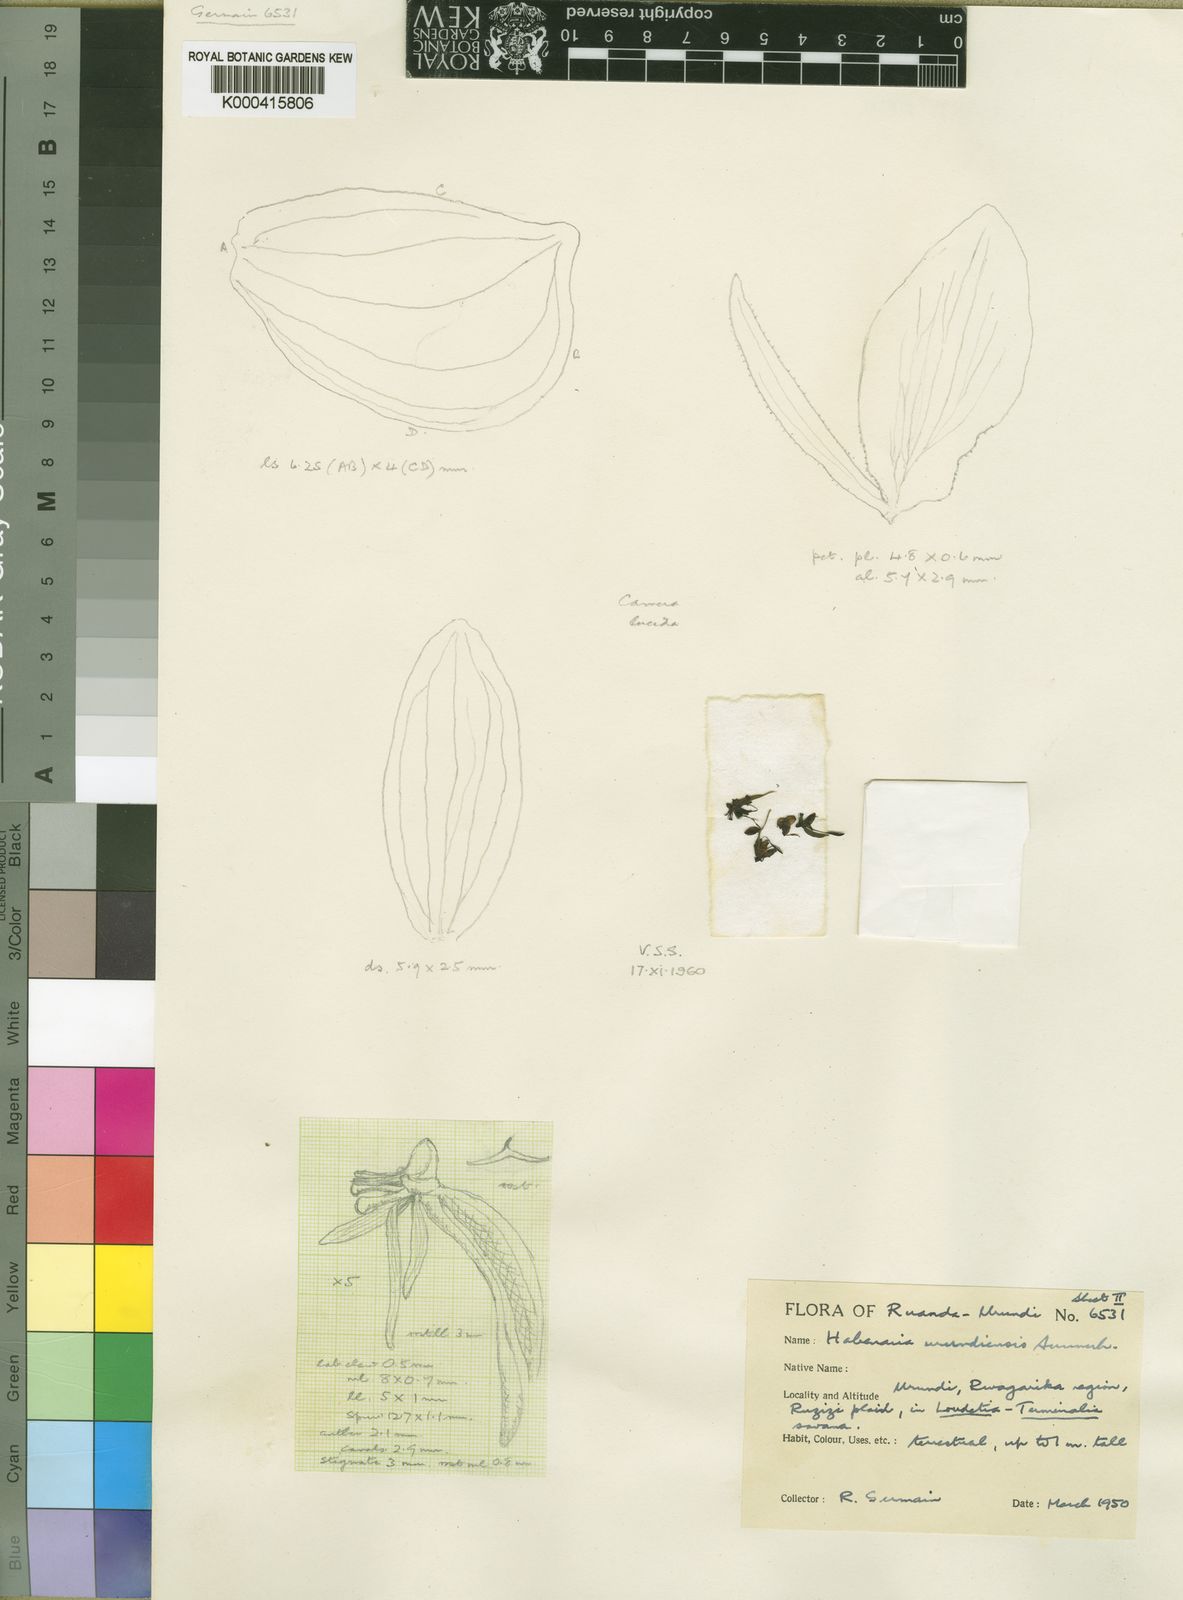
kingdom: Plantae
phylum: Tracheophyta
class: Liliopsida
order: Asparagales
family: Orchidaceae
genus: Habenaria
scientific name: Habenaria huillensis
